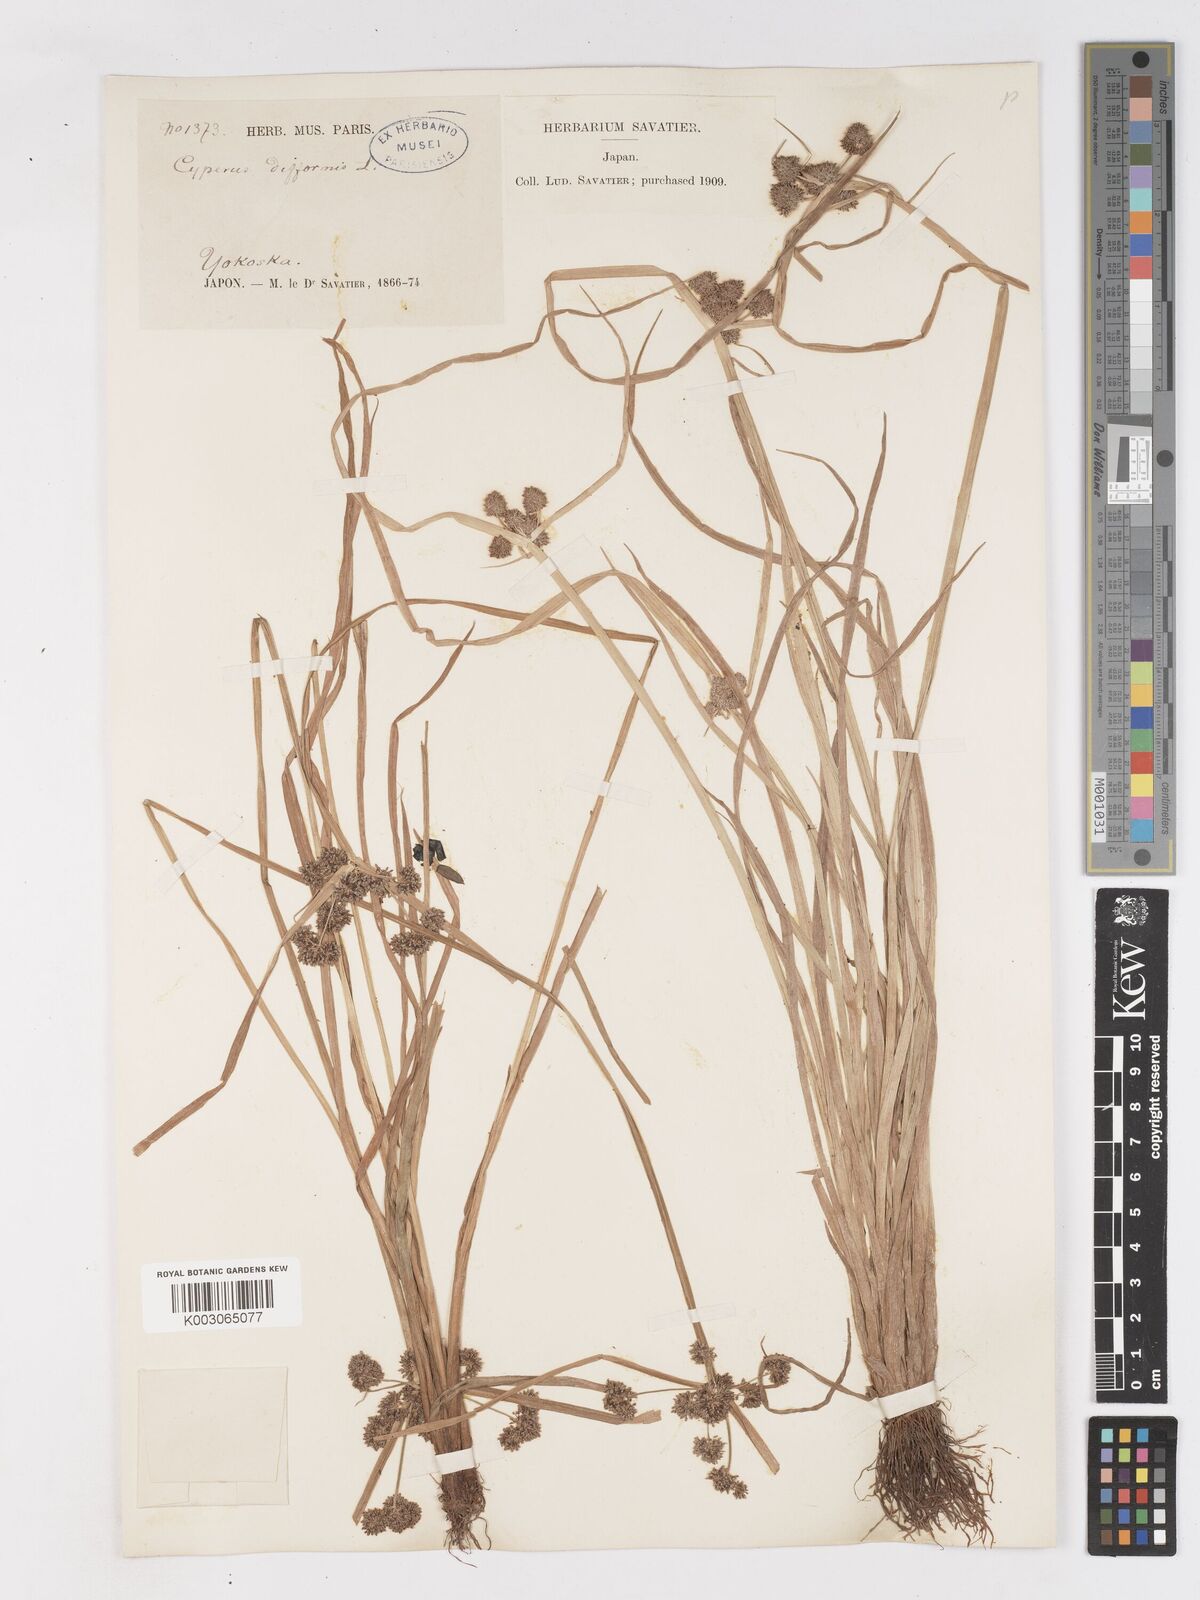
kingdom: Plantae
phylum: Tracheophyta
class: Liliopsida
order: Poales
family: Cyperaceae
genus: Cyperus
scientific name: Cyperus difformis
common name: Variable flatsedge
